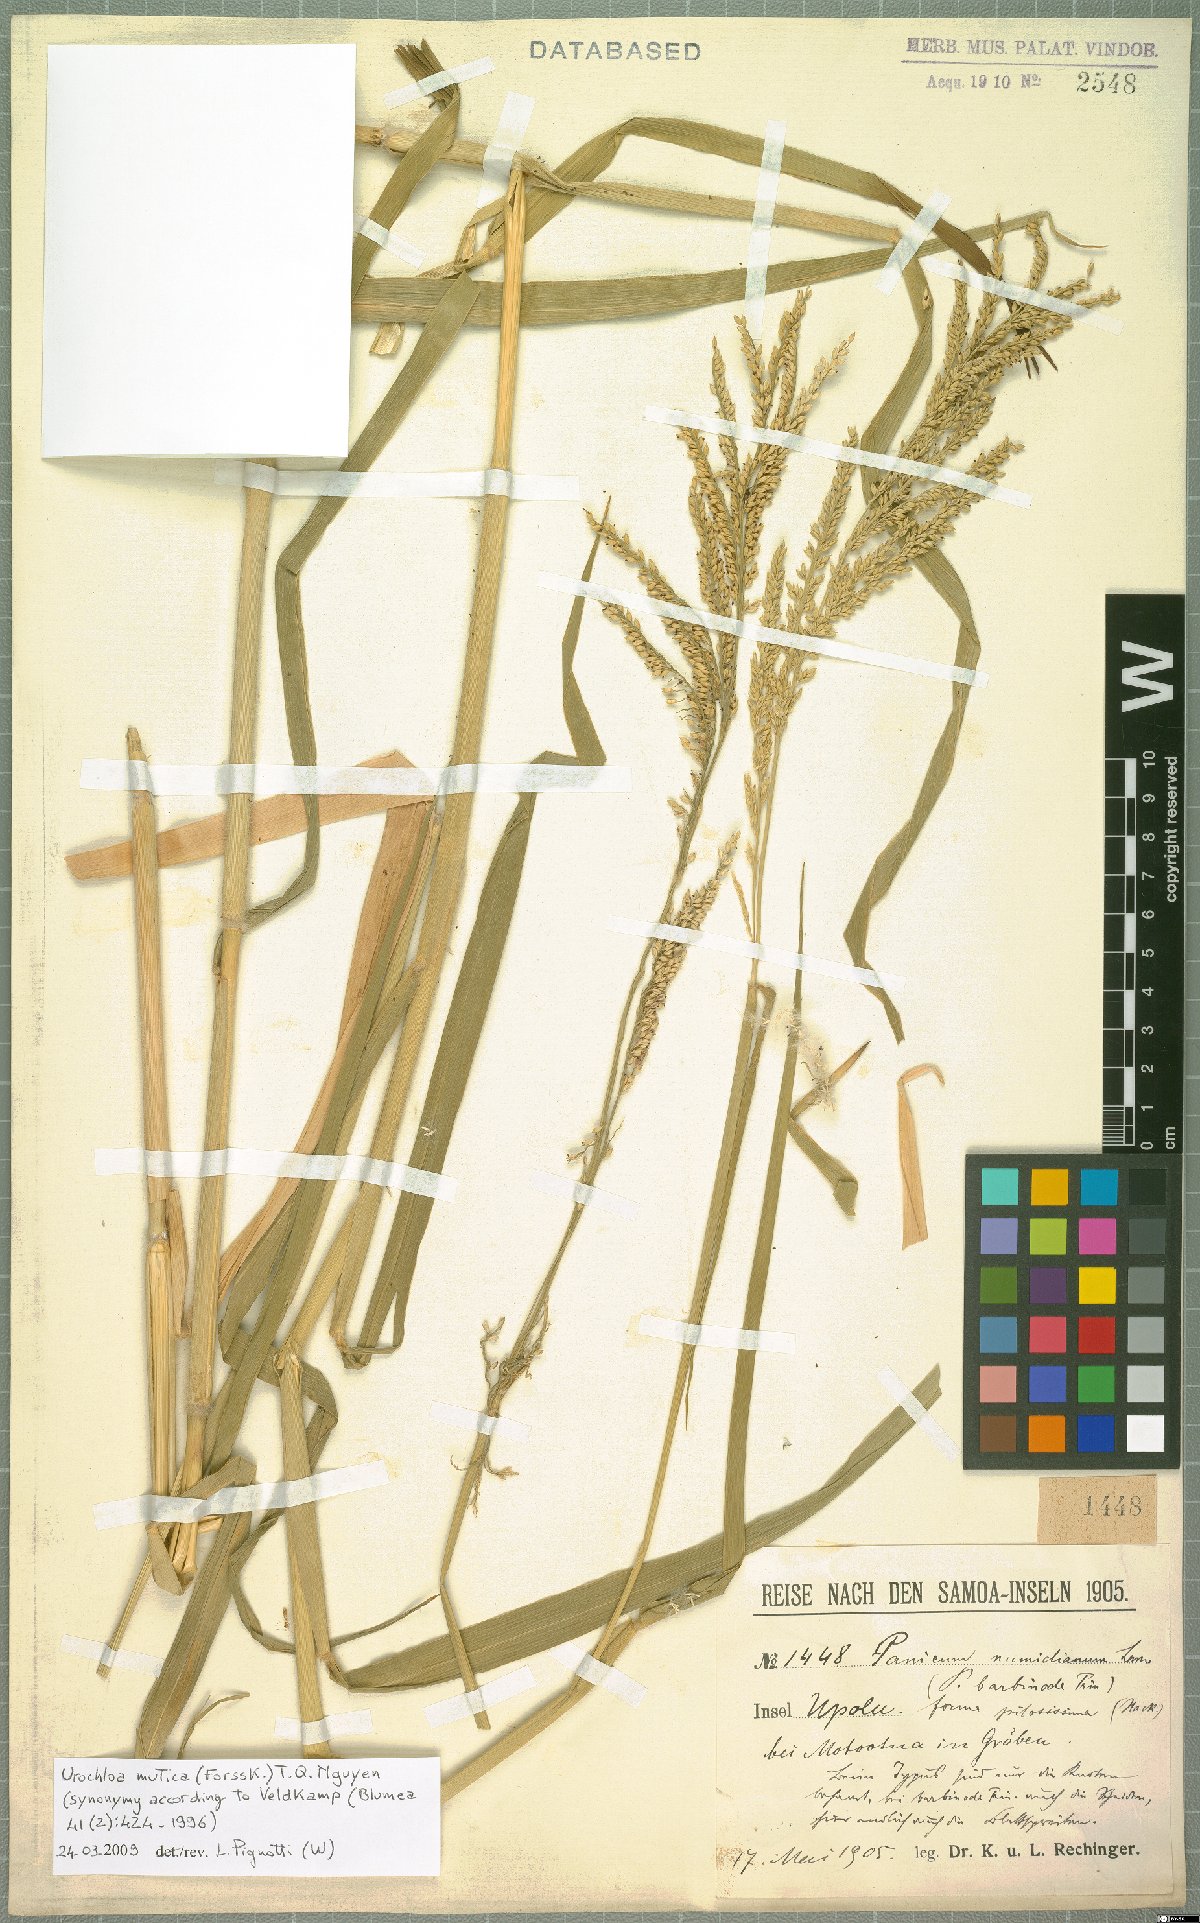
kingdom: Plantae
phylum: Tracheophyta
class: Liliopsida
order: Poales
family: Poaceae
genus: Urochloa
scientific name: Urochloa mutica
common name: Para grass
